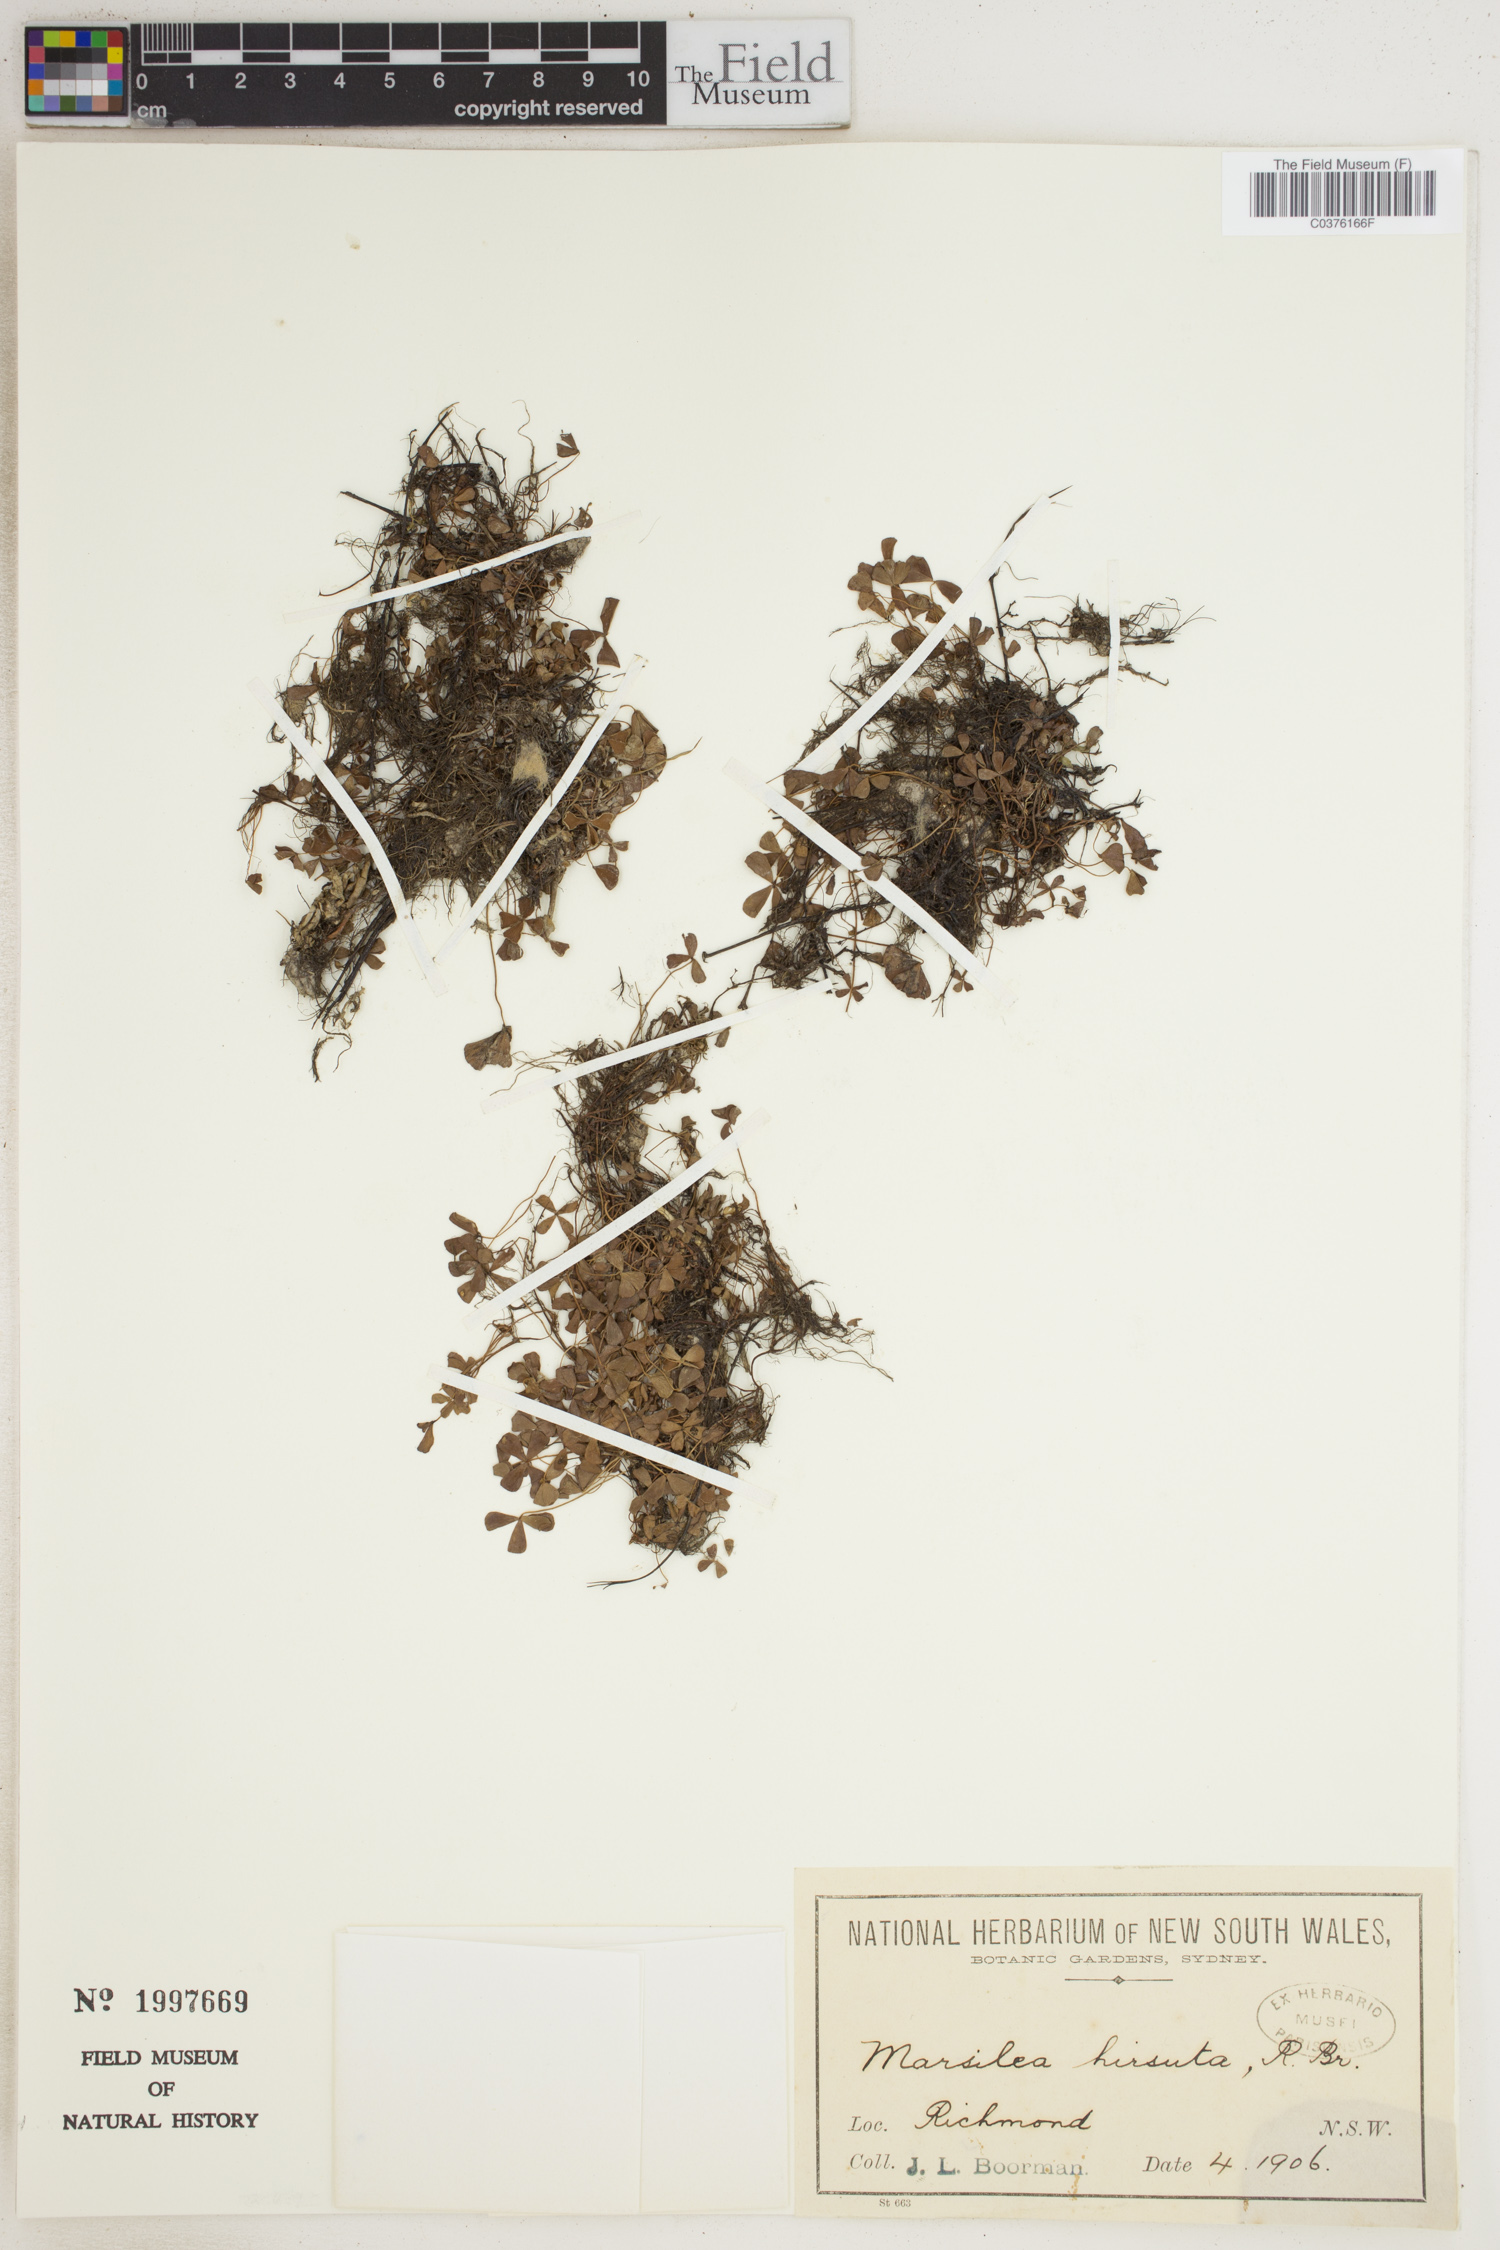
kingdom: Plantae
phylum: Tracheophyta
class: Polypodiopsida
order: Salviniales
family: Marsileaceae
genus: Marsilea
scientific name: Marsilea hirsuta
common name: Rough waterclover
